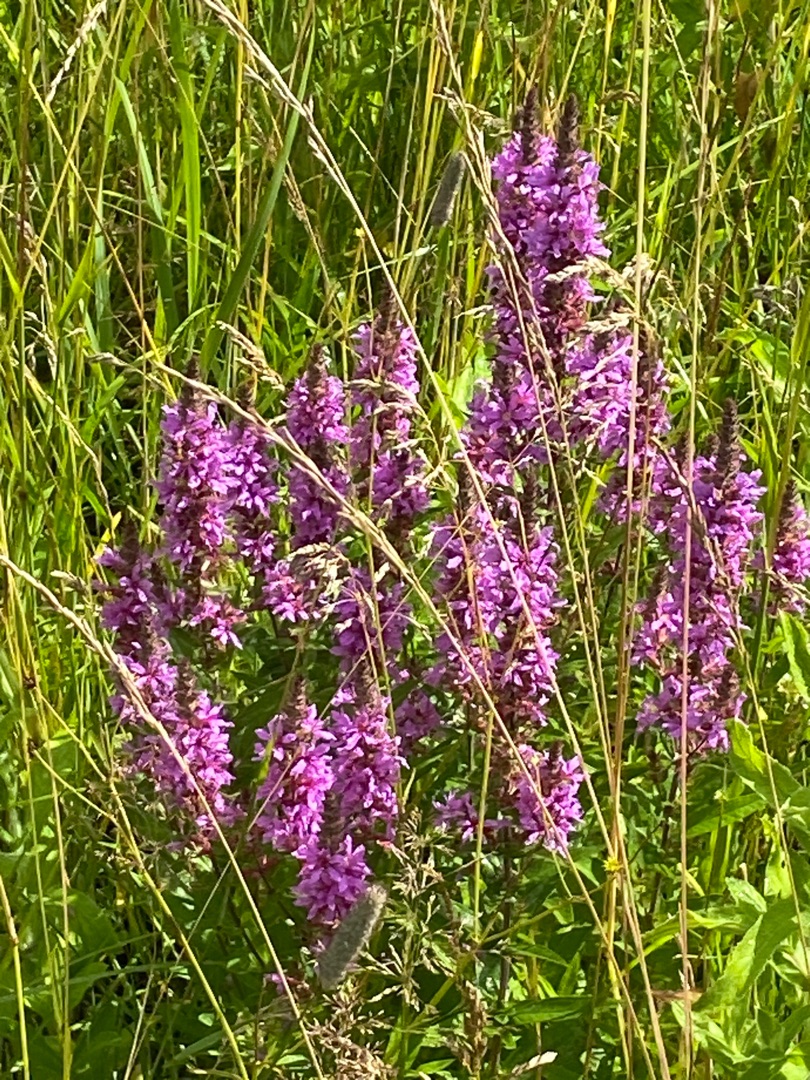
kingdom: Plantae
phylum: Tracheophyta
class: Magnoliopsida
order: Myrtales
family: Lythraceae
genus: Lythrum
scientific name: Lythrum salicaria
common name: Kattehale
